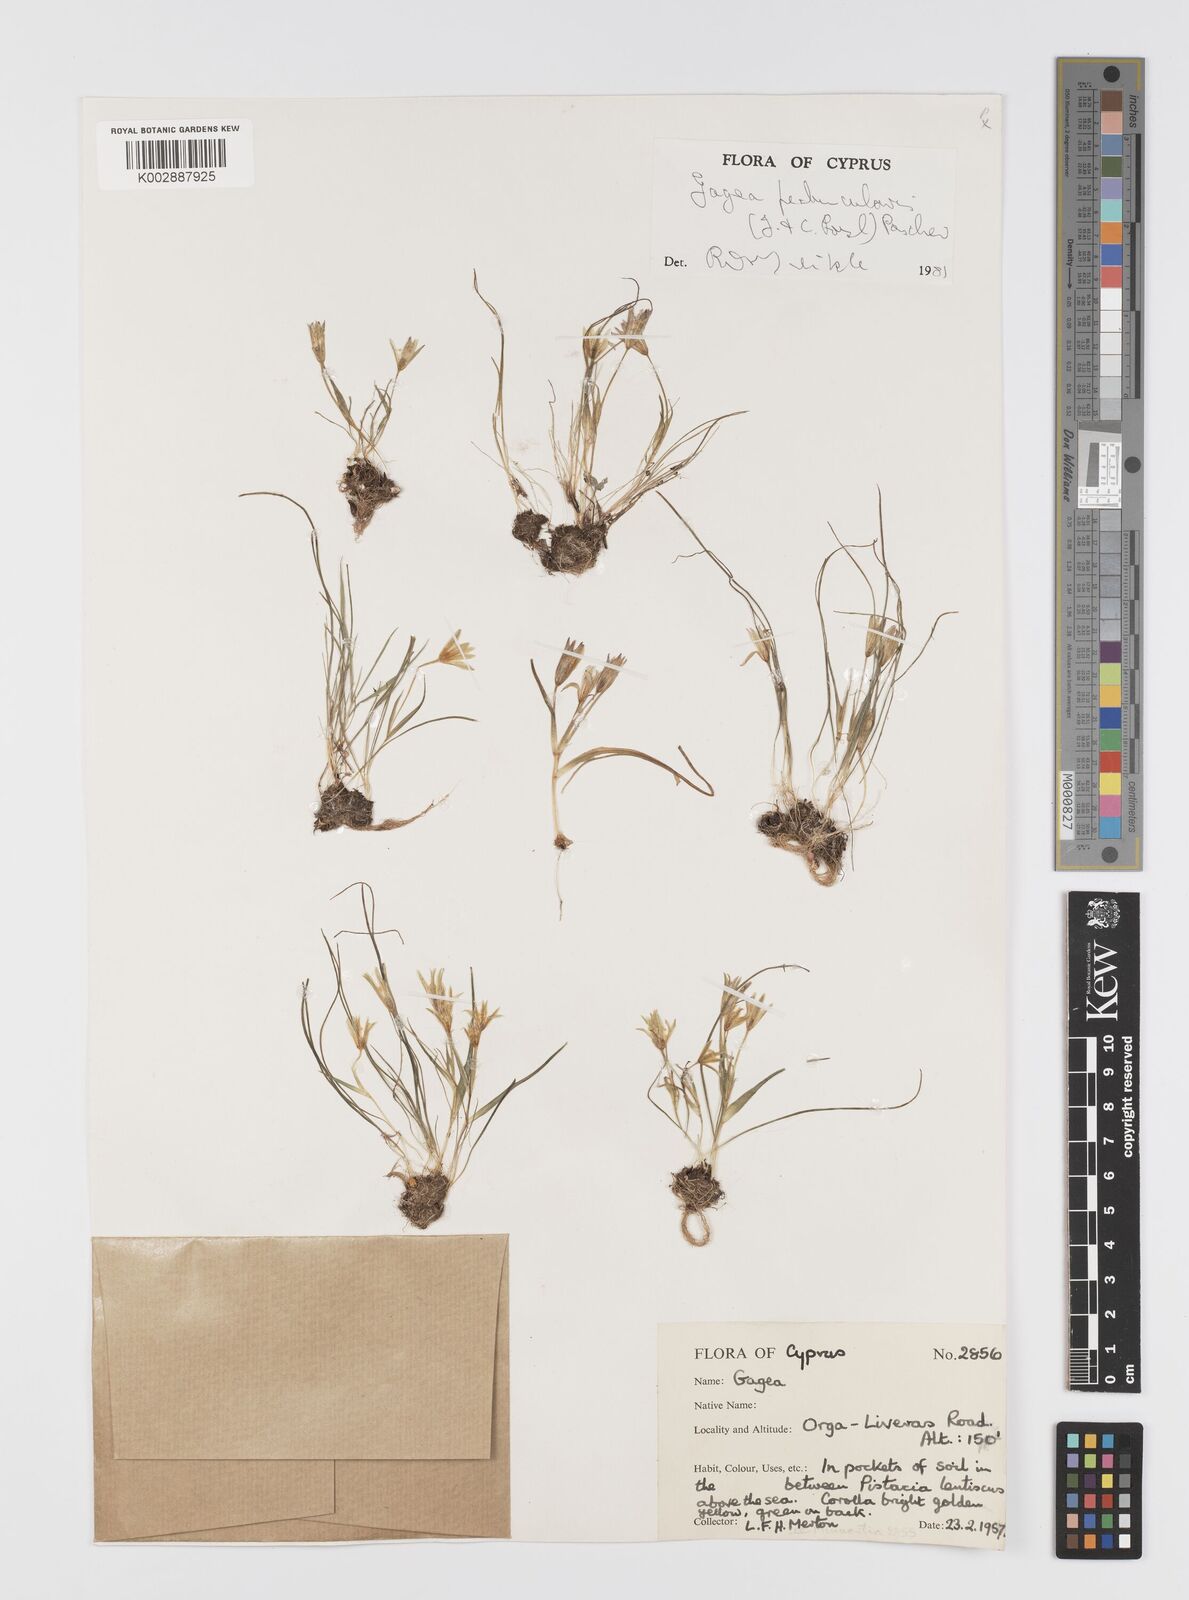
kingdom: Plantae
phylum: Tracheophyta
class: Liliopsida
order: Liliales
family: Liliaceae
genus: Gagea
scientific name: Gagea peduncularis
